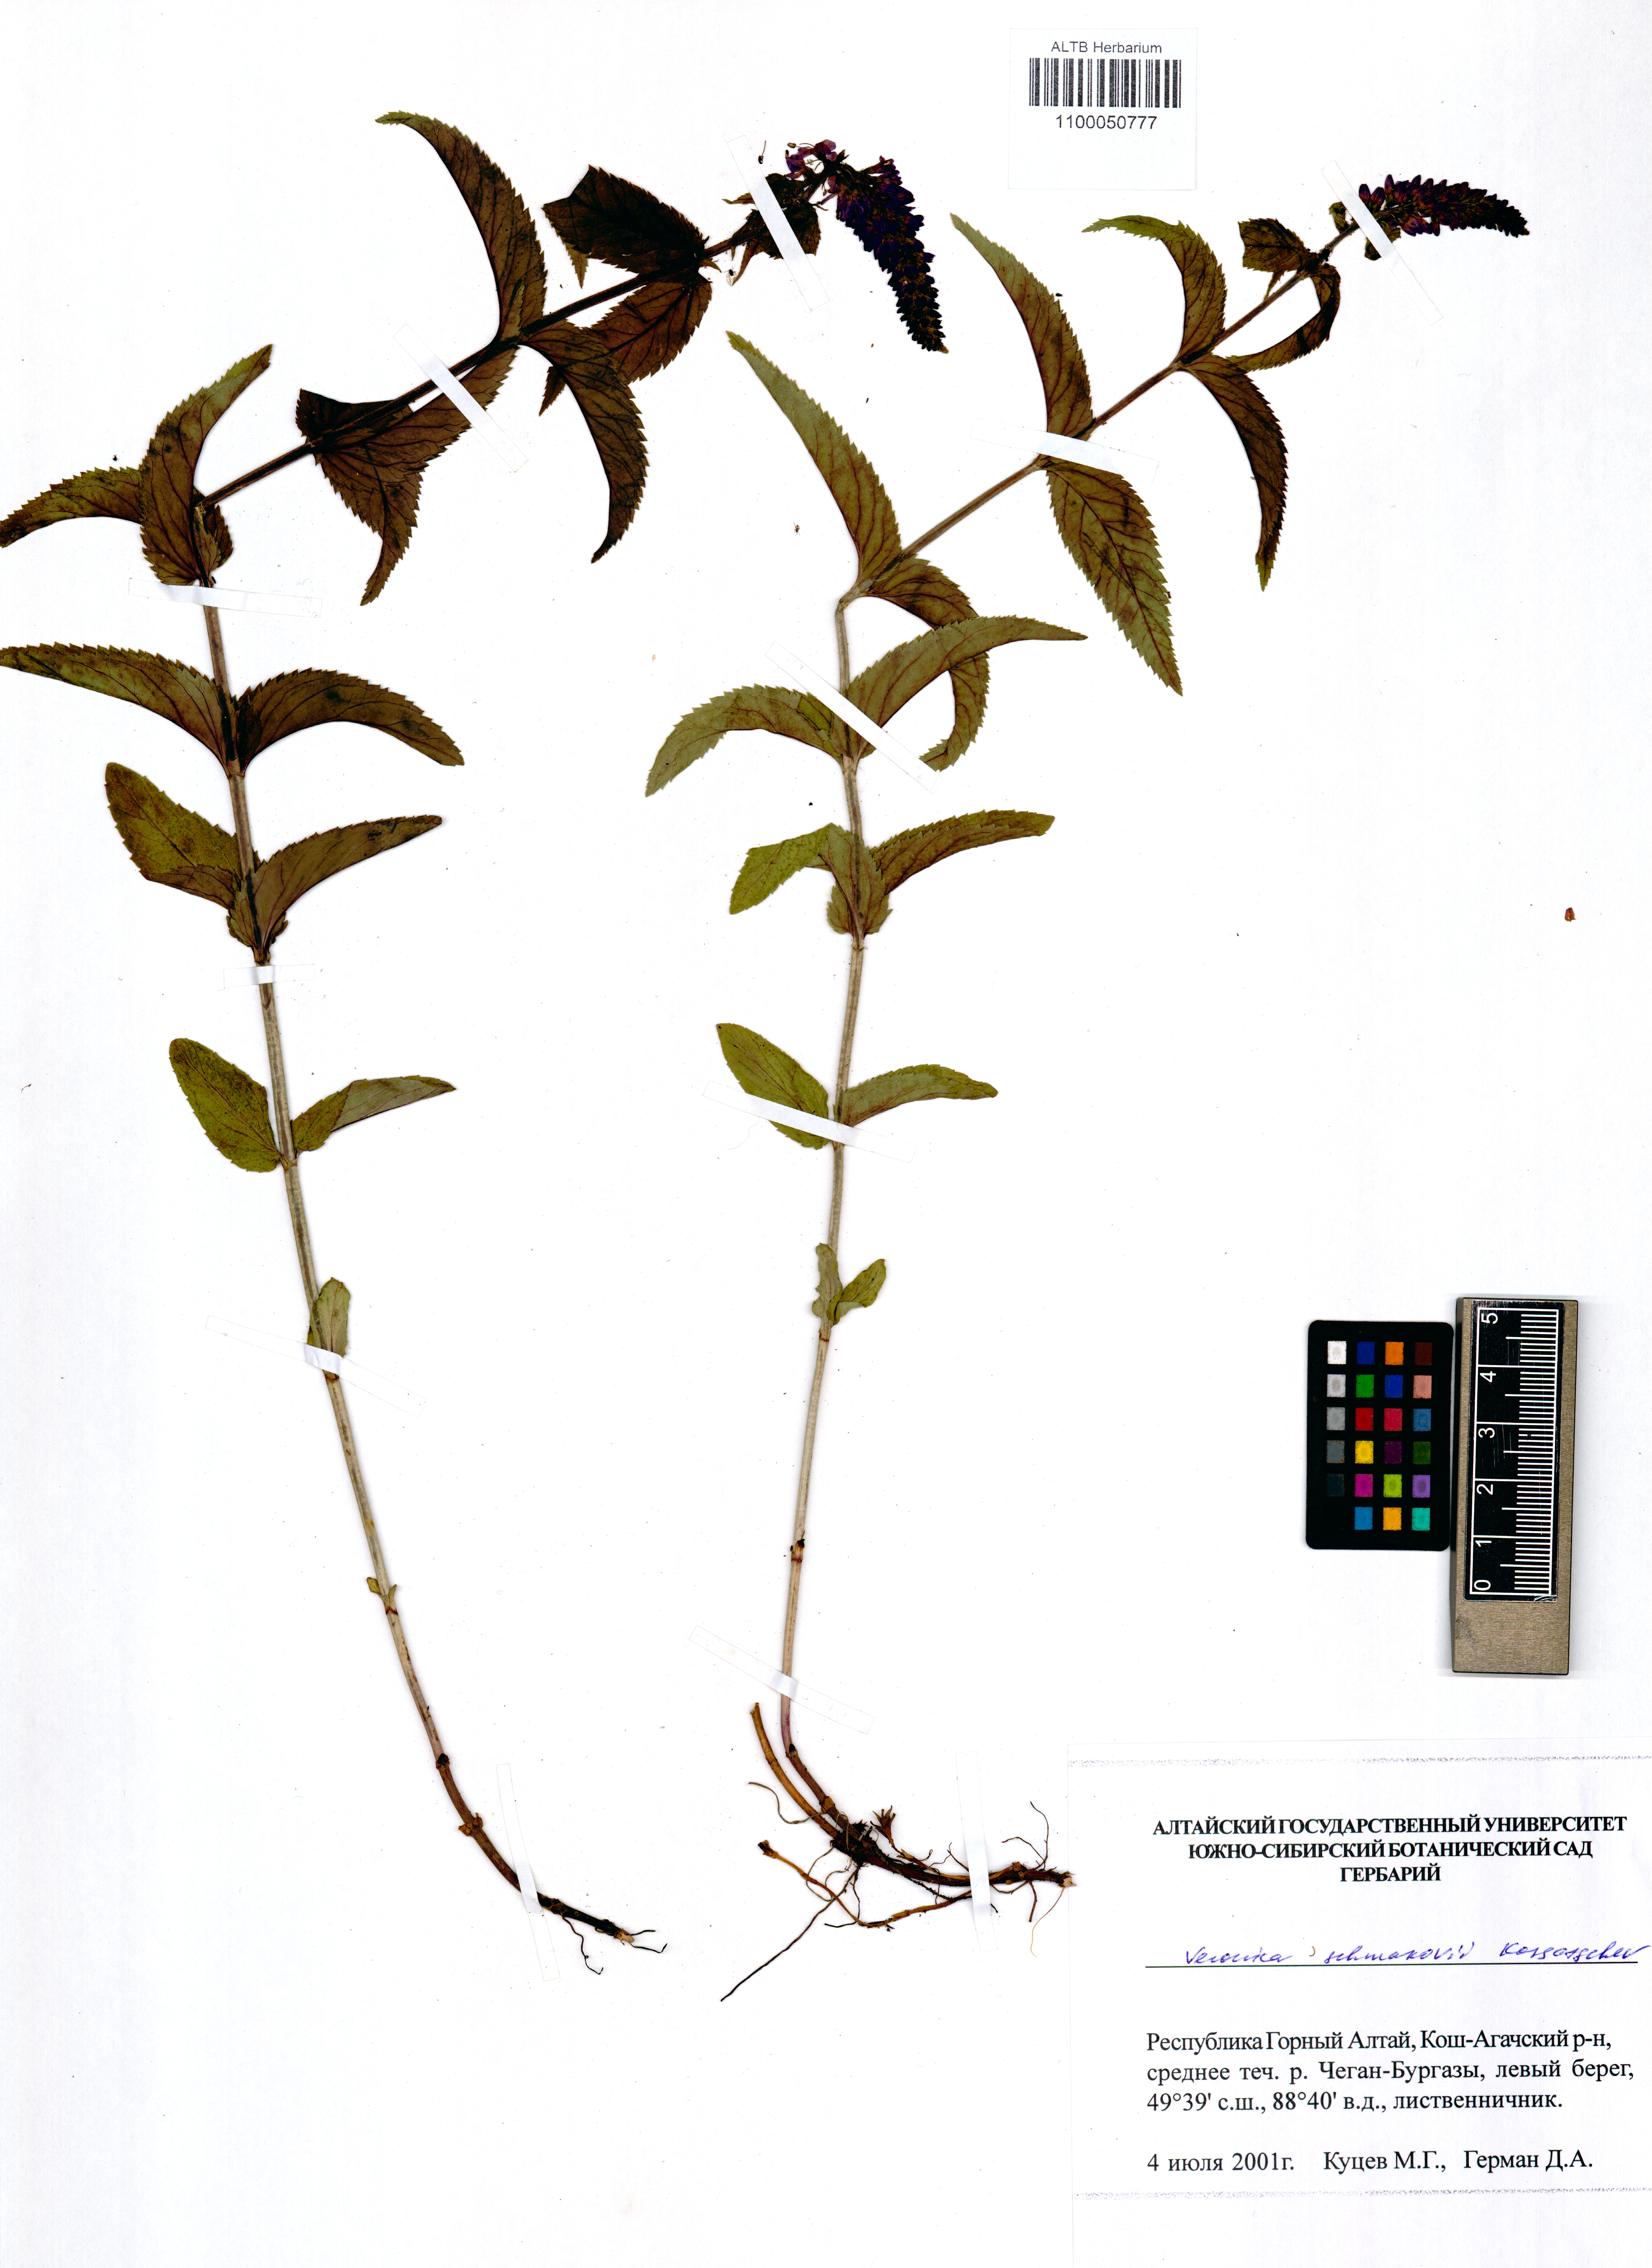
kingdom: Plantae
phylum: Tracheophyta
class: Magnoliopsida
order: Lamiales
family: Plantaginaceae
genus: Veronica
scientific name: Veronica schmakovii
